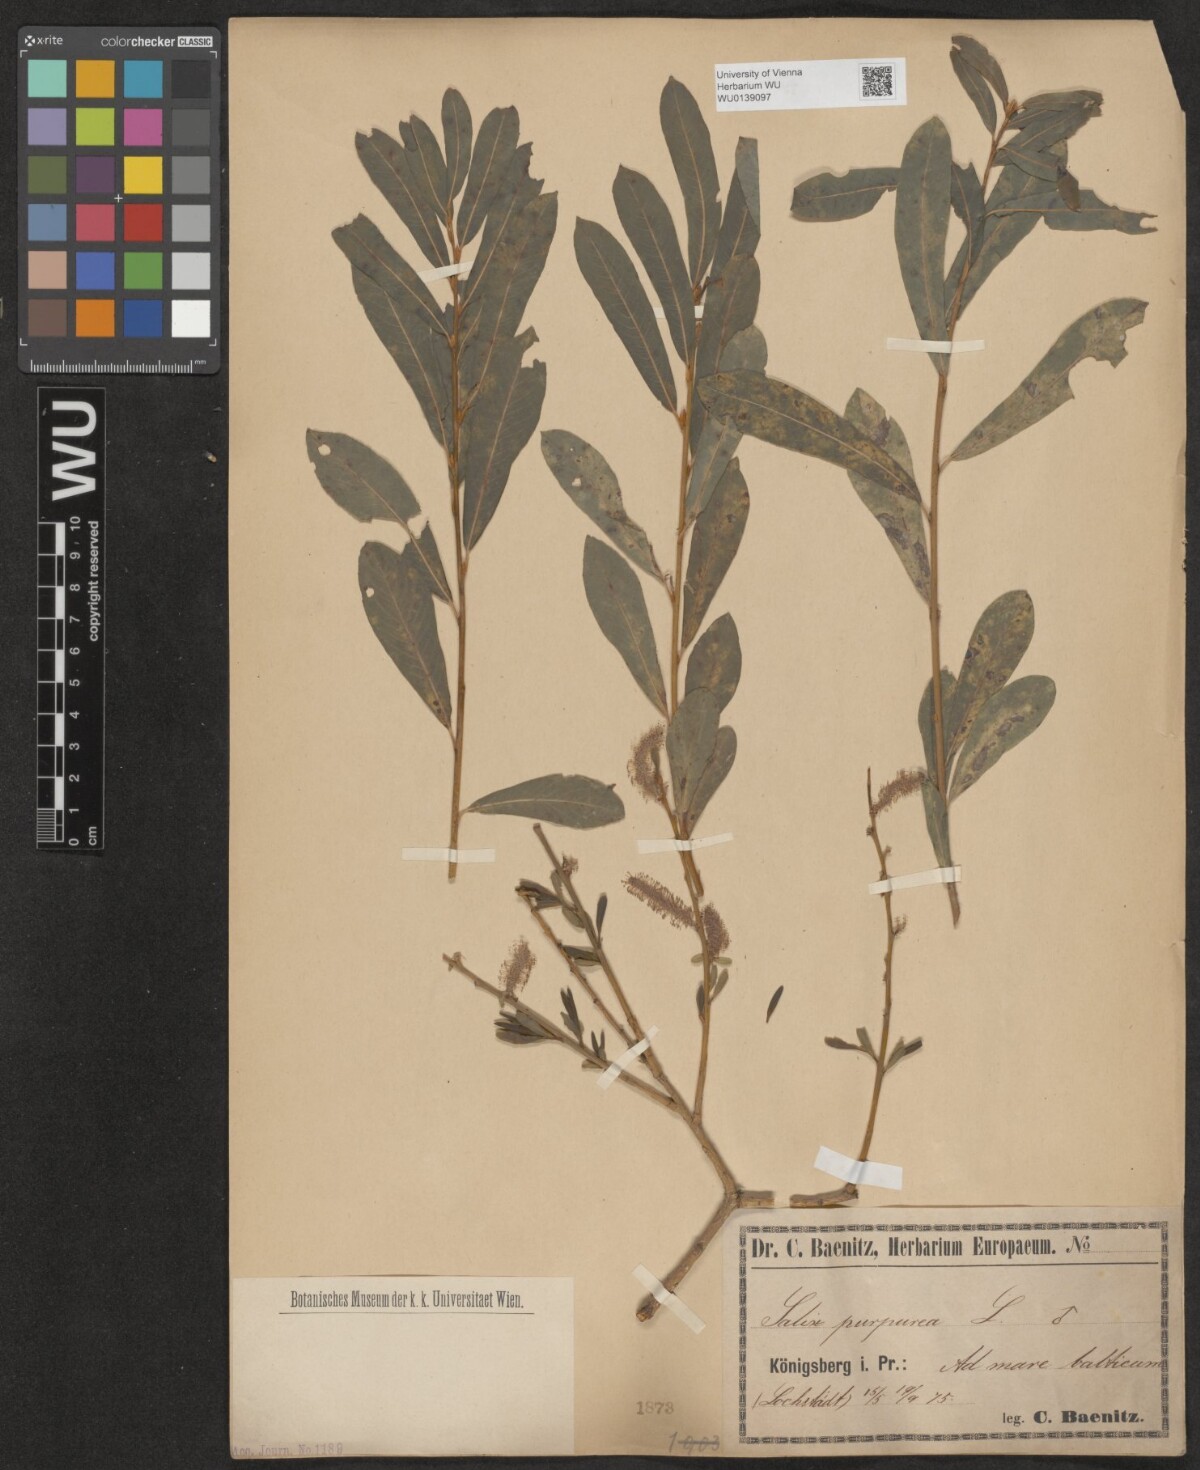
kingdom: Plantae
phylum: Tracheophyta
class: Magnoliopsida
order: Malpighiales
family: Salicaceae
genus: Salix
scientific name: Salix purpurea
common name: Purple willow
